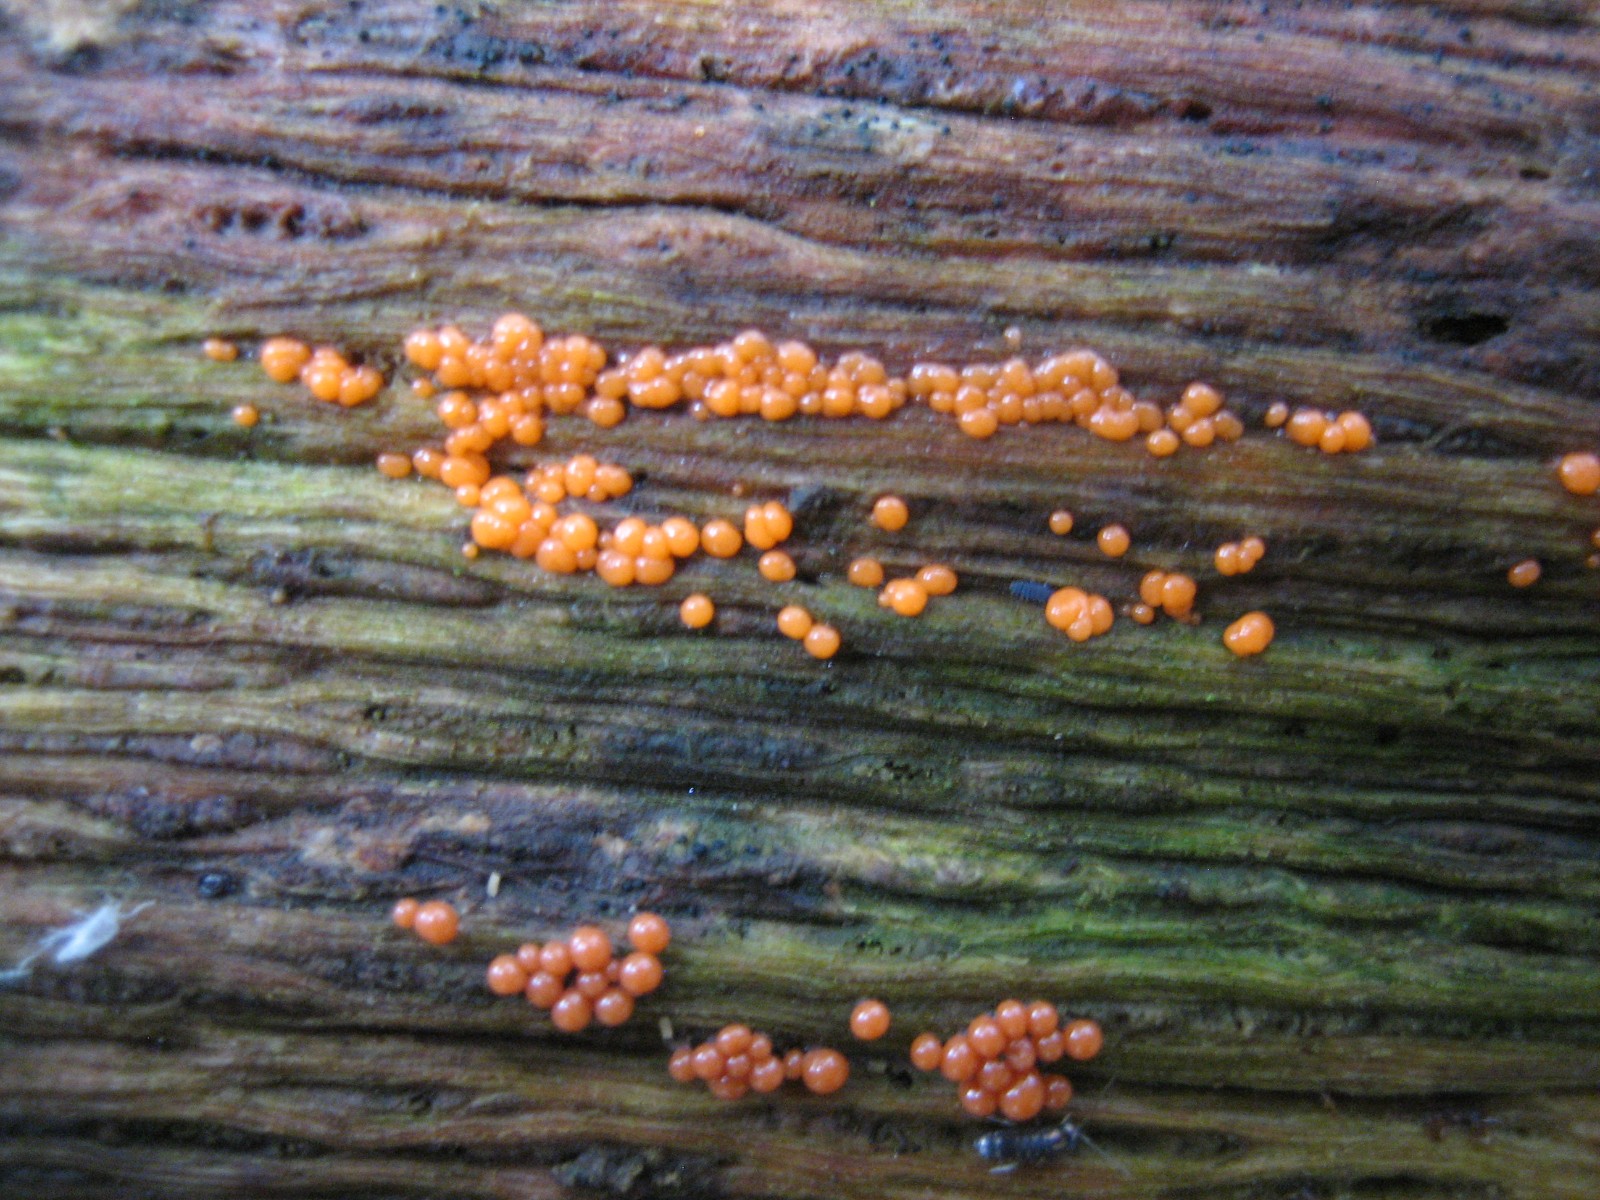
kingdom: Protozoa
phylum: Mycetozoa
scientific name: Mycetozoa
